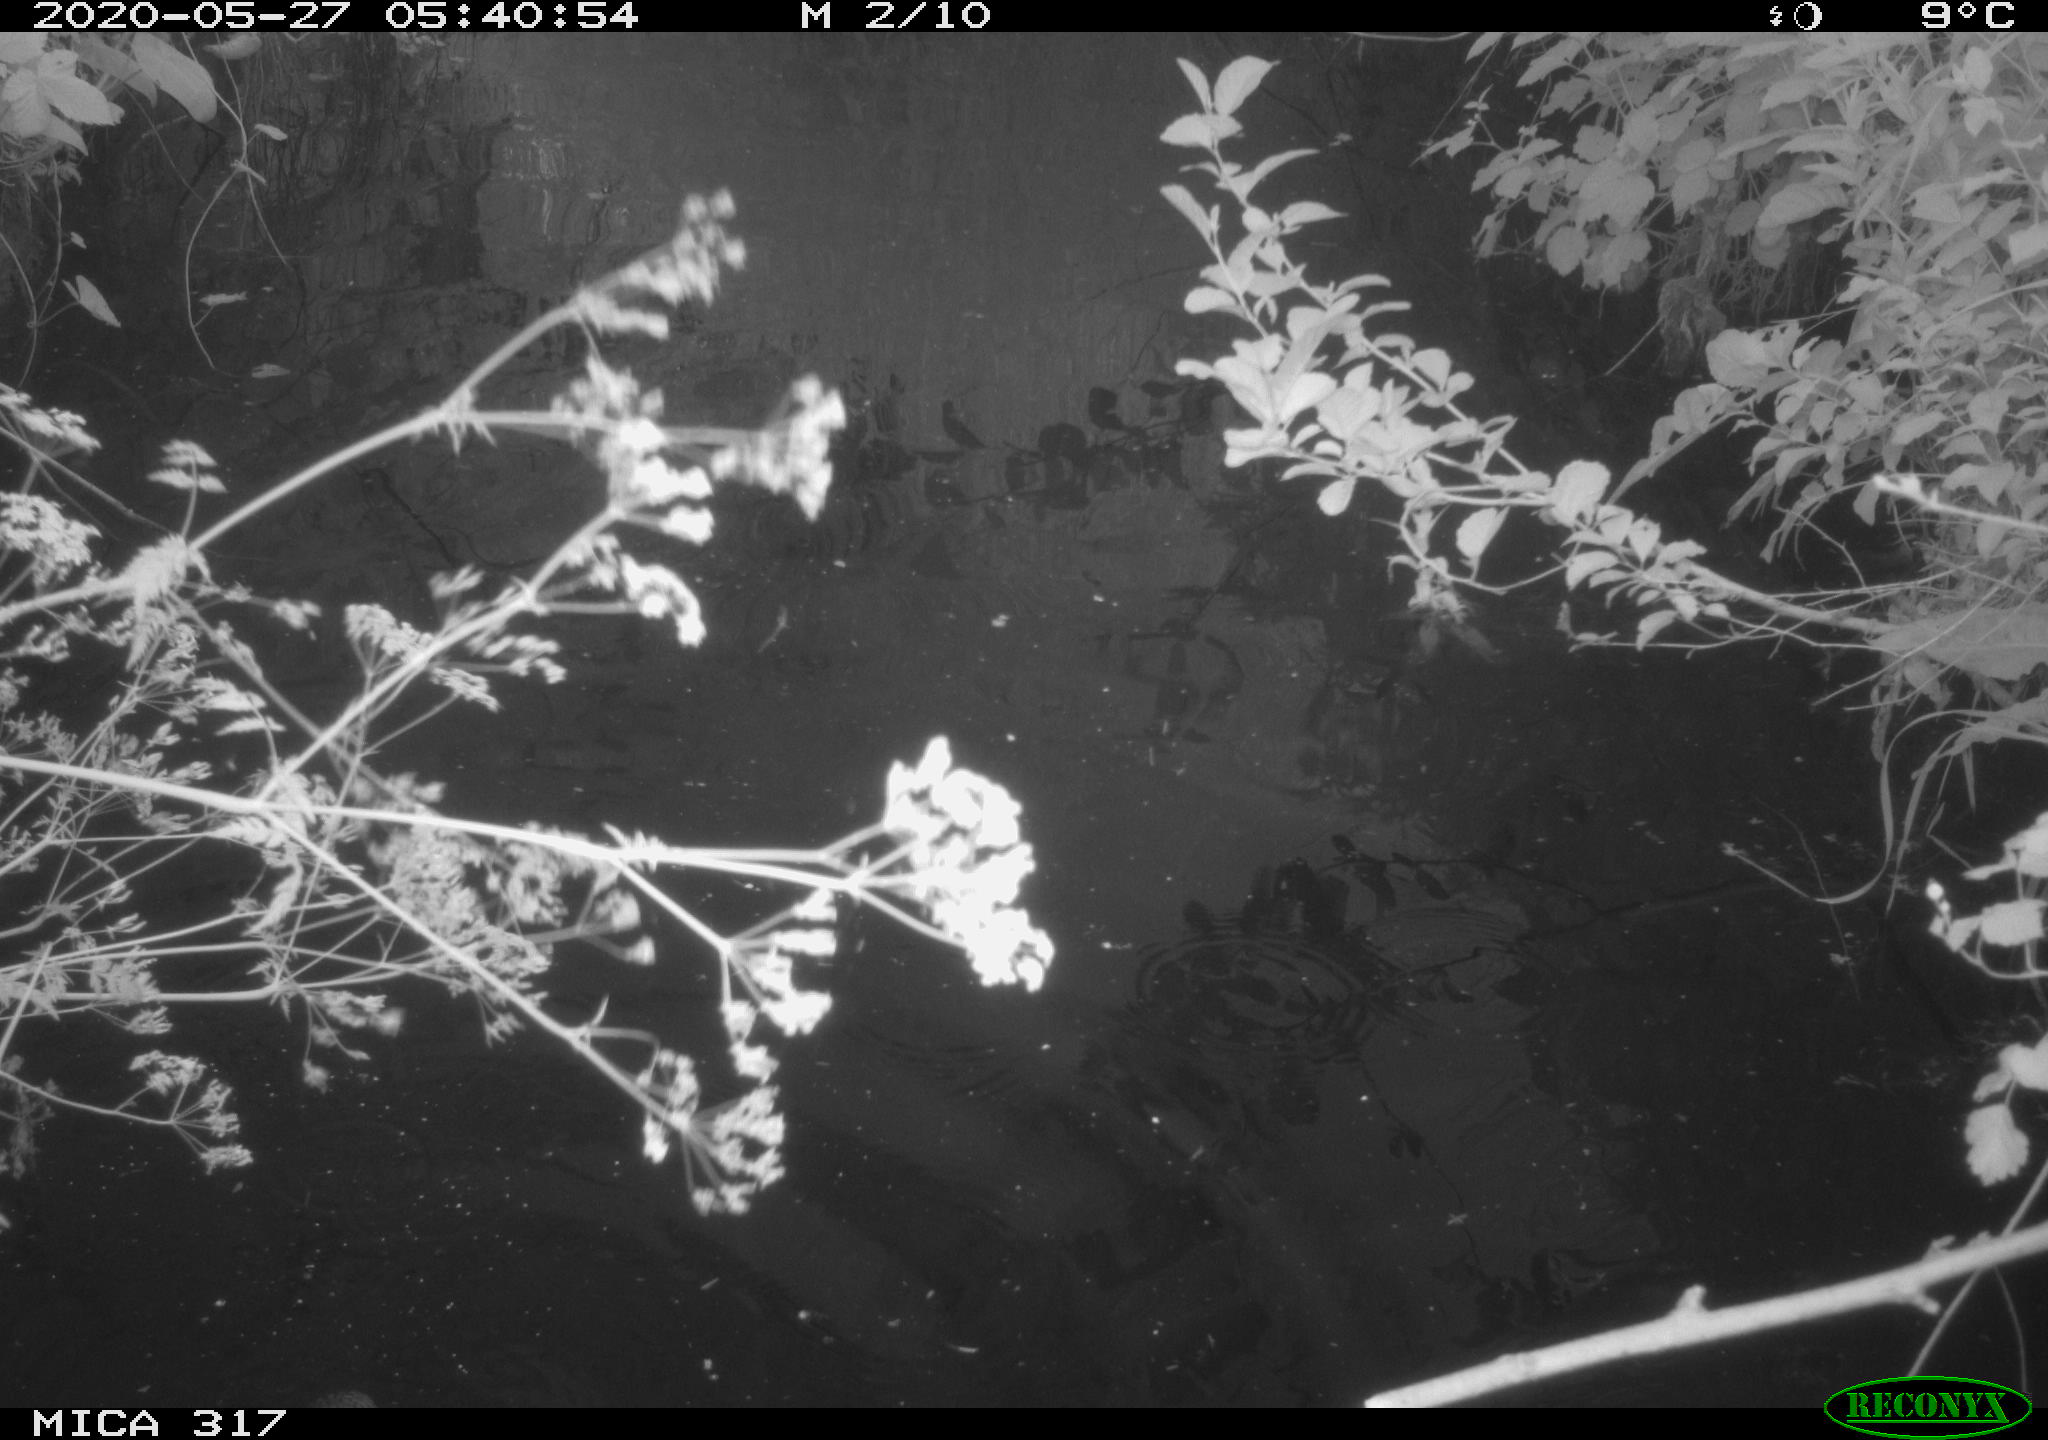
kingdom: Animalia
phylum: Chordata
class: Aves
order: Anseriformes
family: Anatidae
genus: Anas
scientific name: Anas platyrhynchos
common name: Mallard
